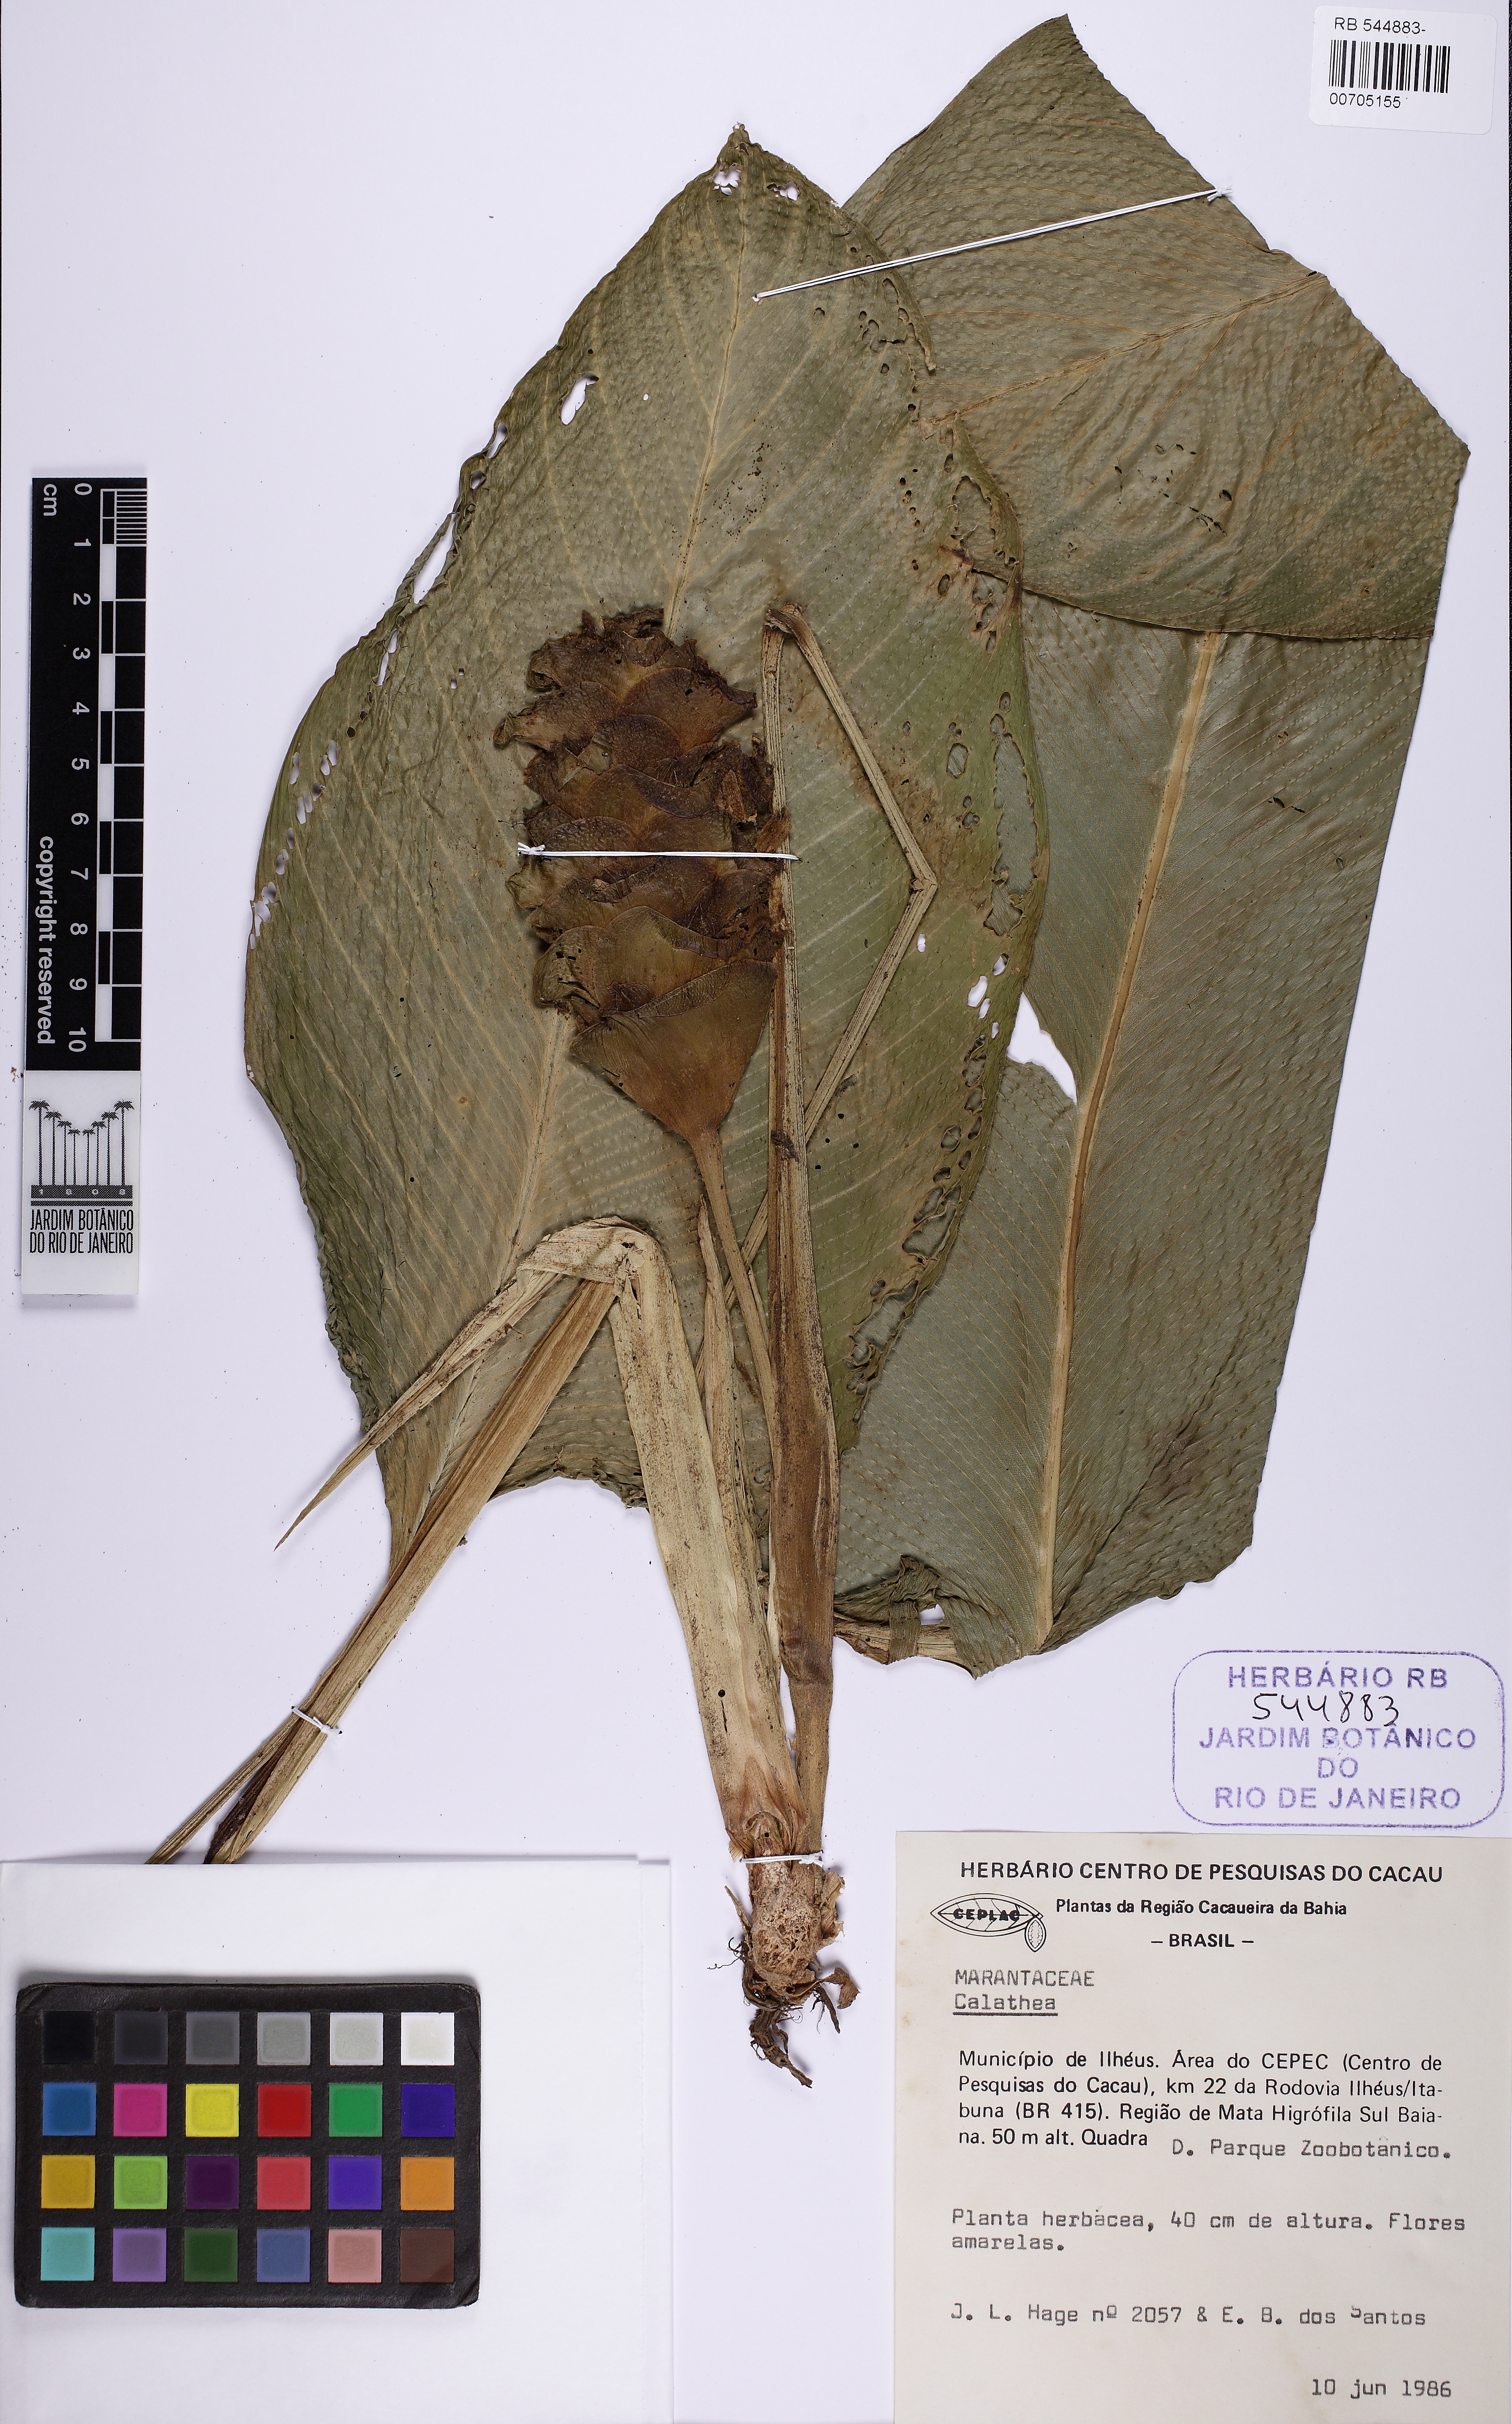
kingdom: Plantae
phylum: Tracheophyta
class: Liliopsida
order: Zingiberales
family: Marantaceae
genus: Goeppertia
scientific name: Goeppertia cylindrica
